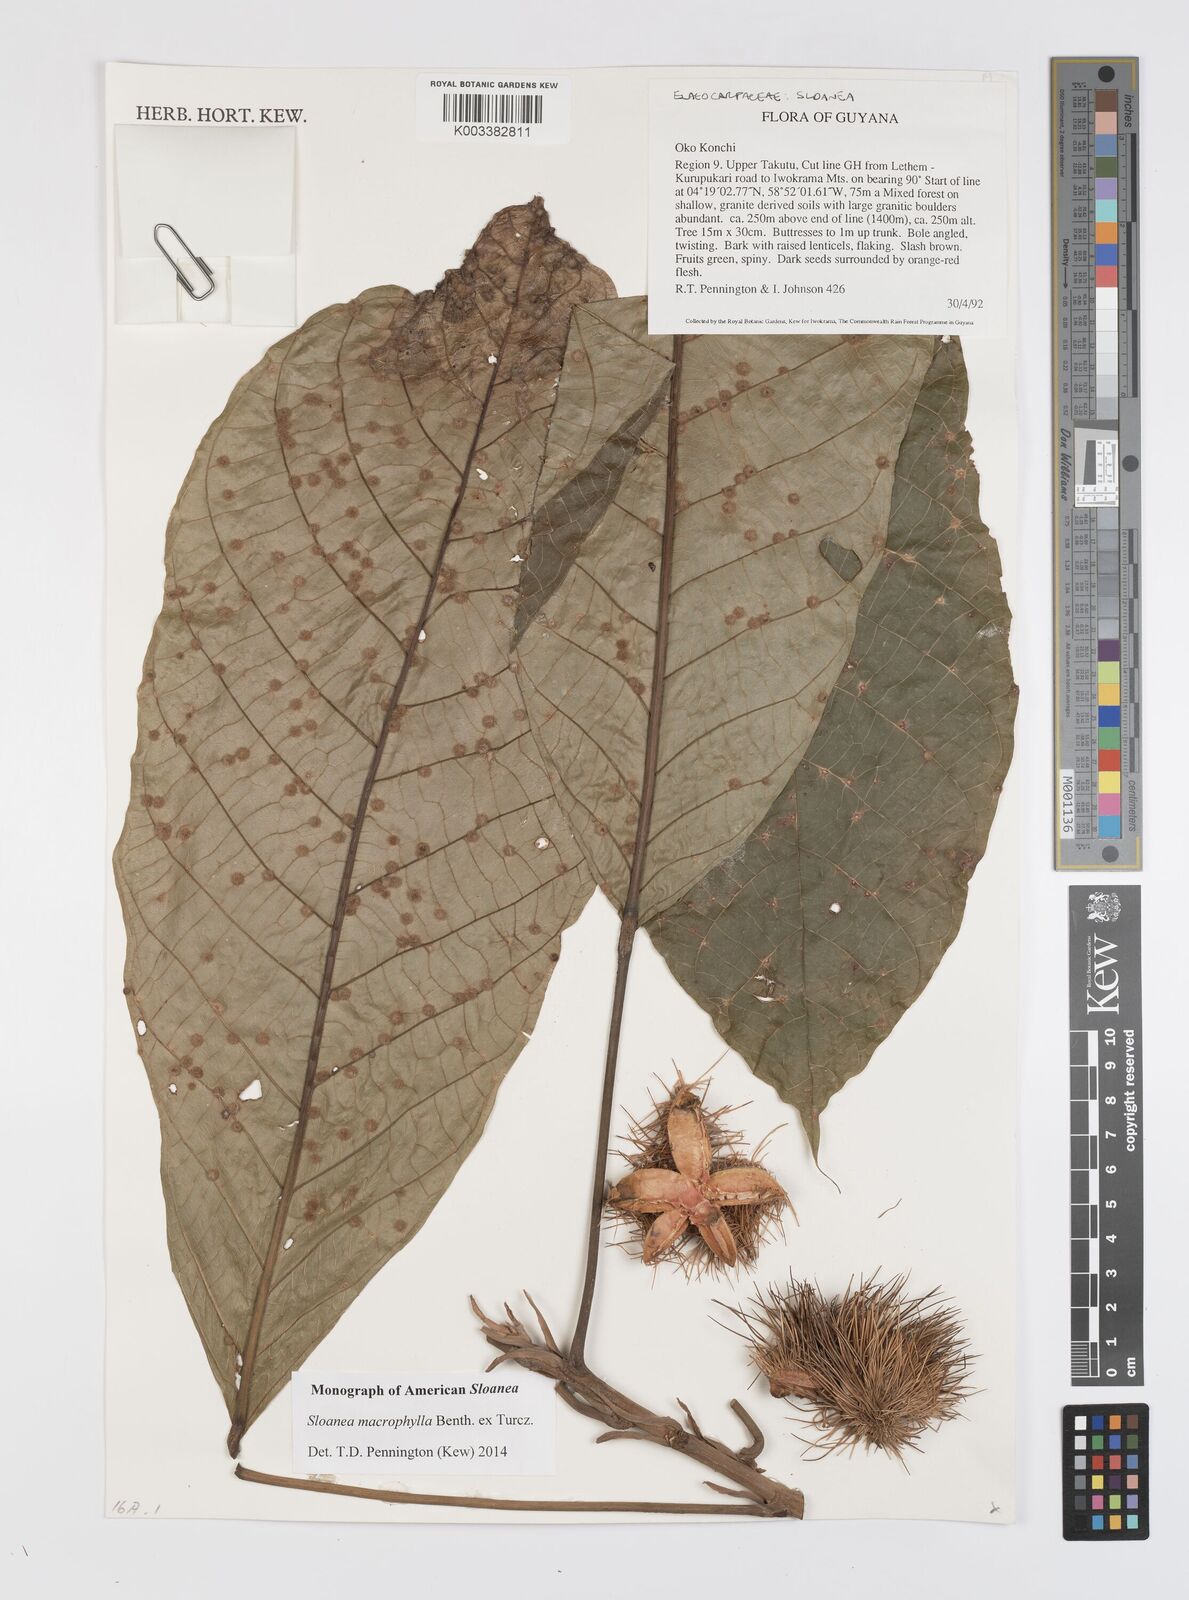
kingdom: Plantae
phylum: Tracheophyta
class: Magnoliopsida
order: Oxalidales
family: Elaeocarpaceae
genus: Sloanea
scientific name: Sloanea macrophylla
